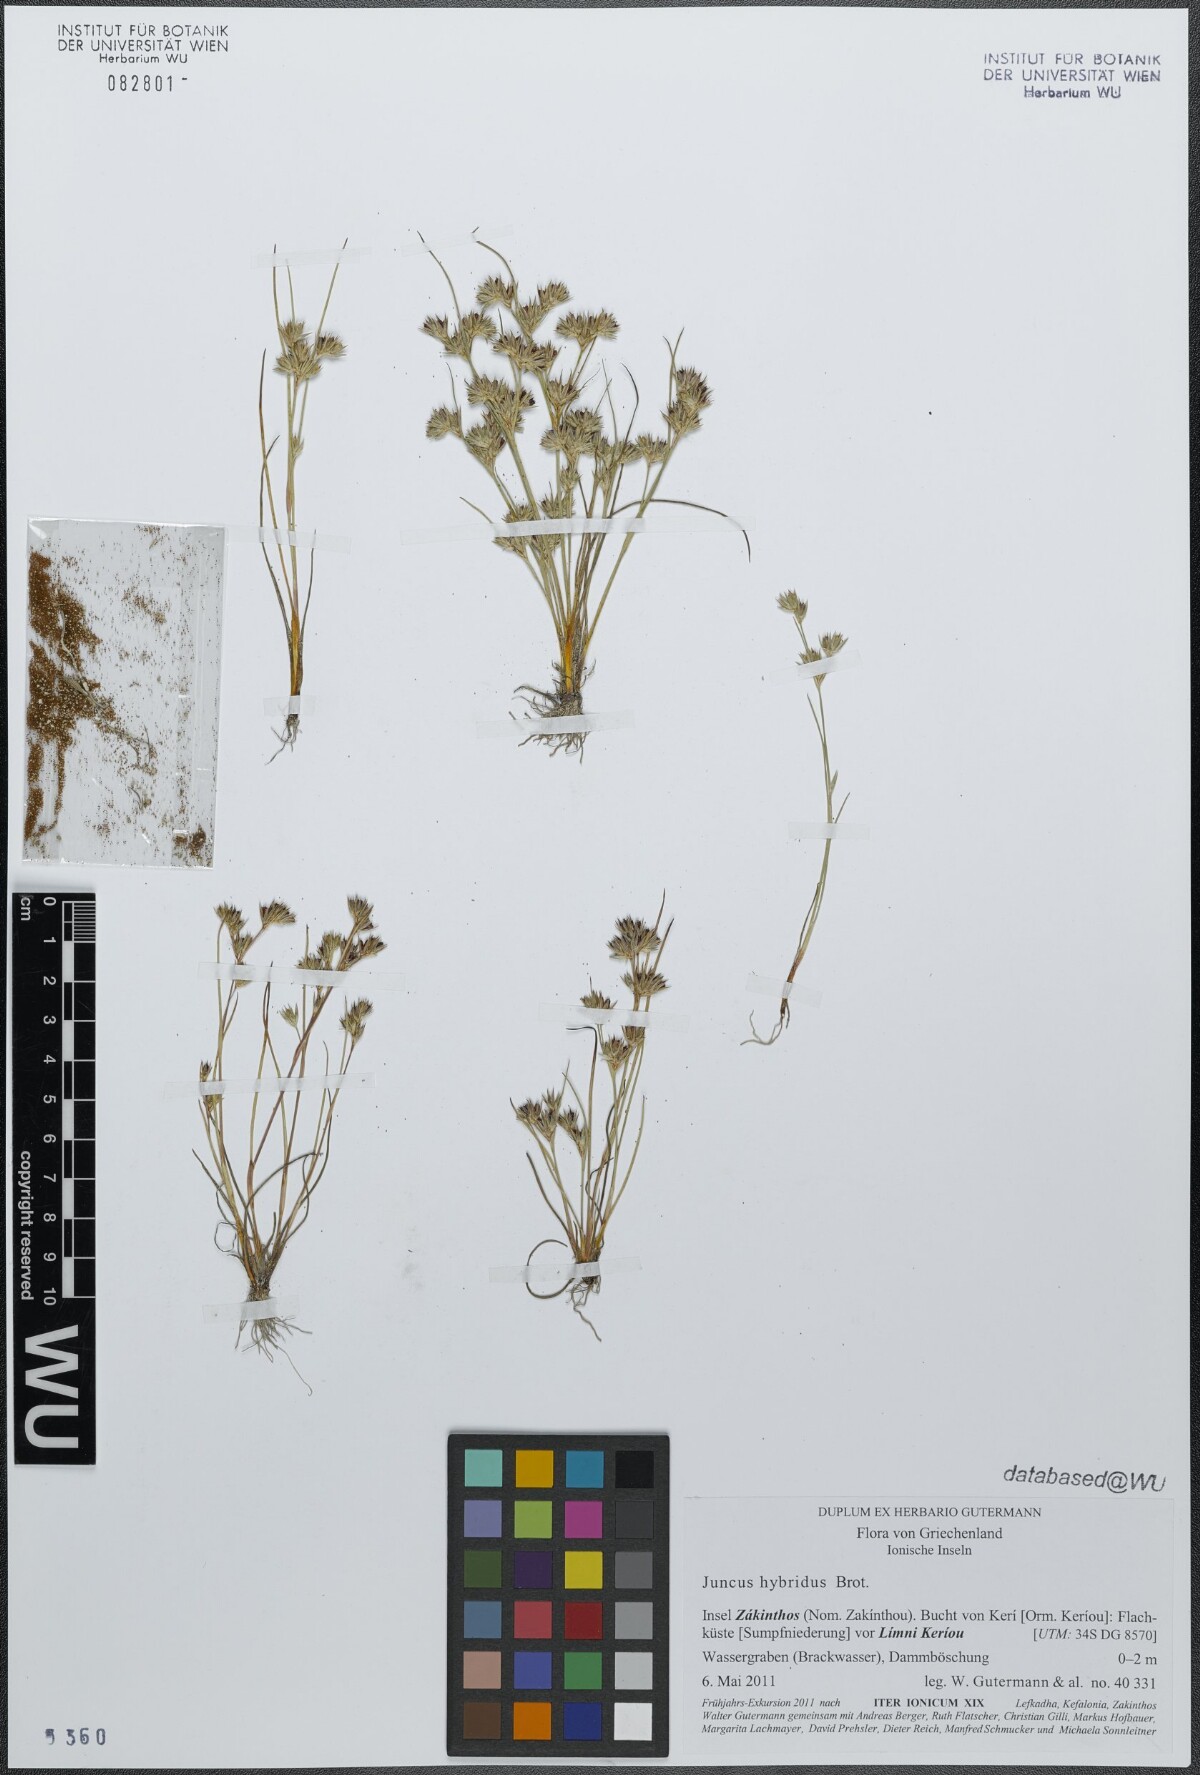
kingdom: Plantae
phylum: Tracheophyta
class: Liliopsida
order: Poales
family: Juncaceae
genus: Juncus
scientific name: Juncus hybridus
